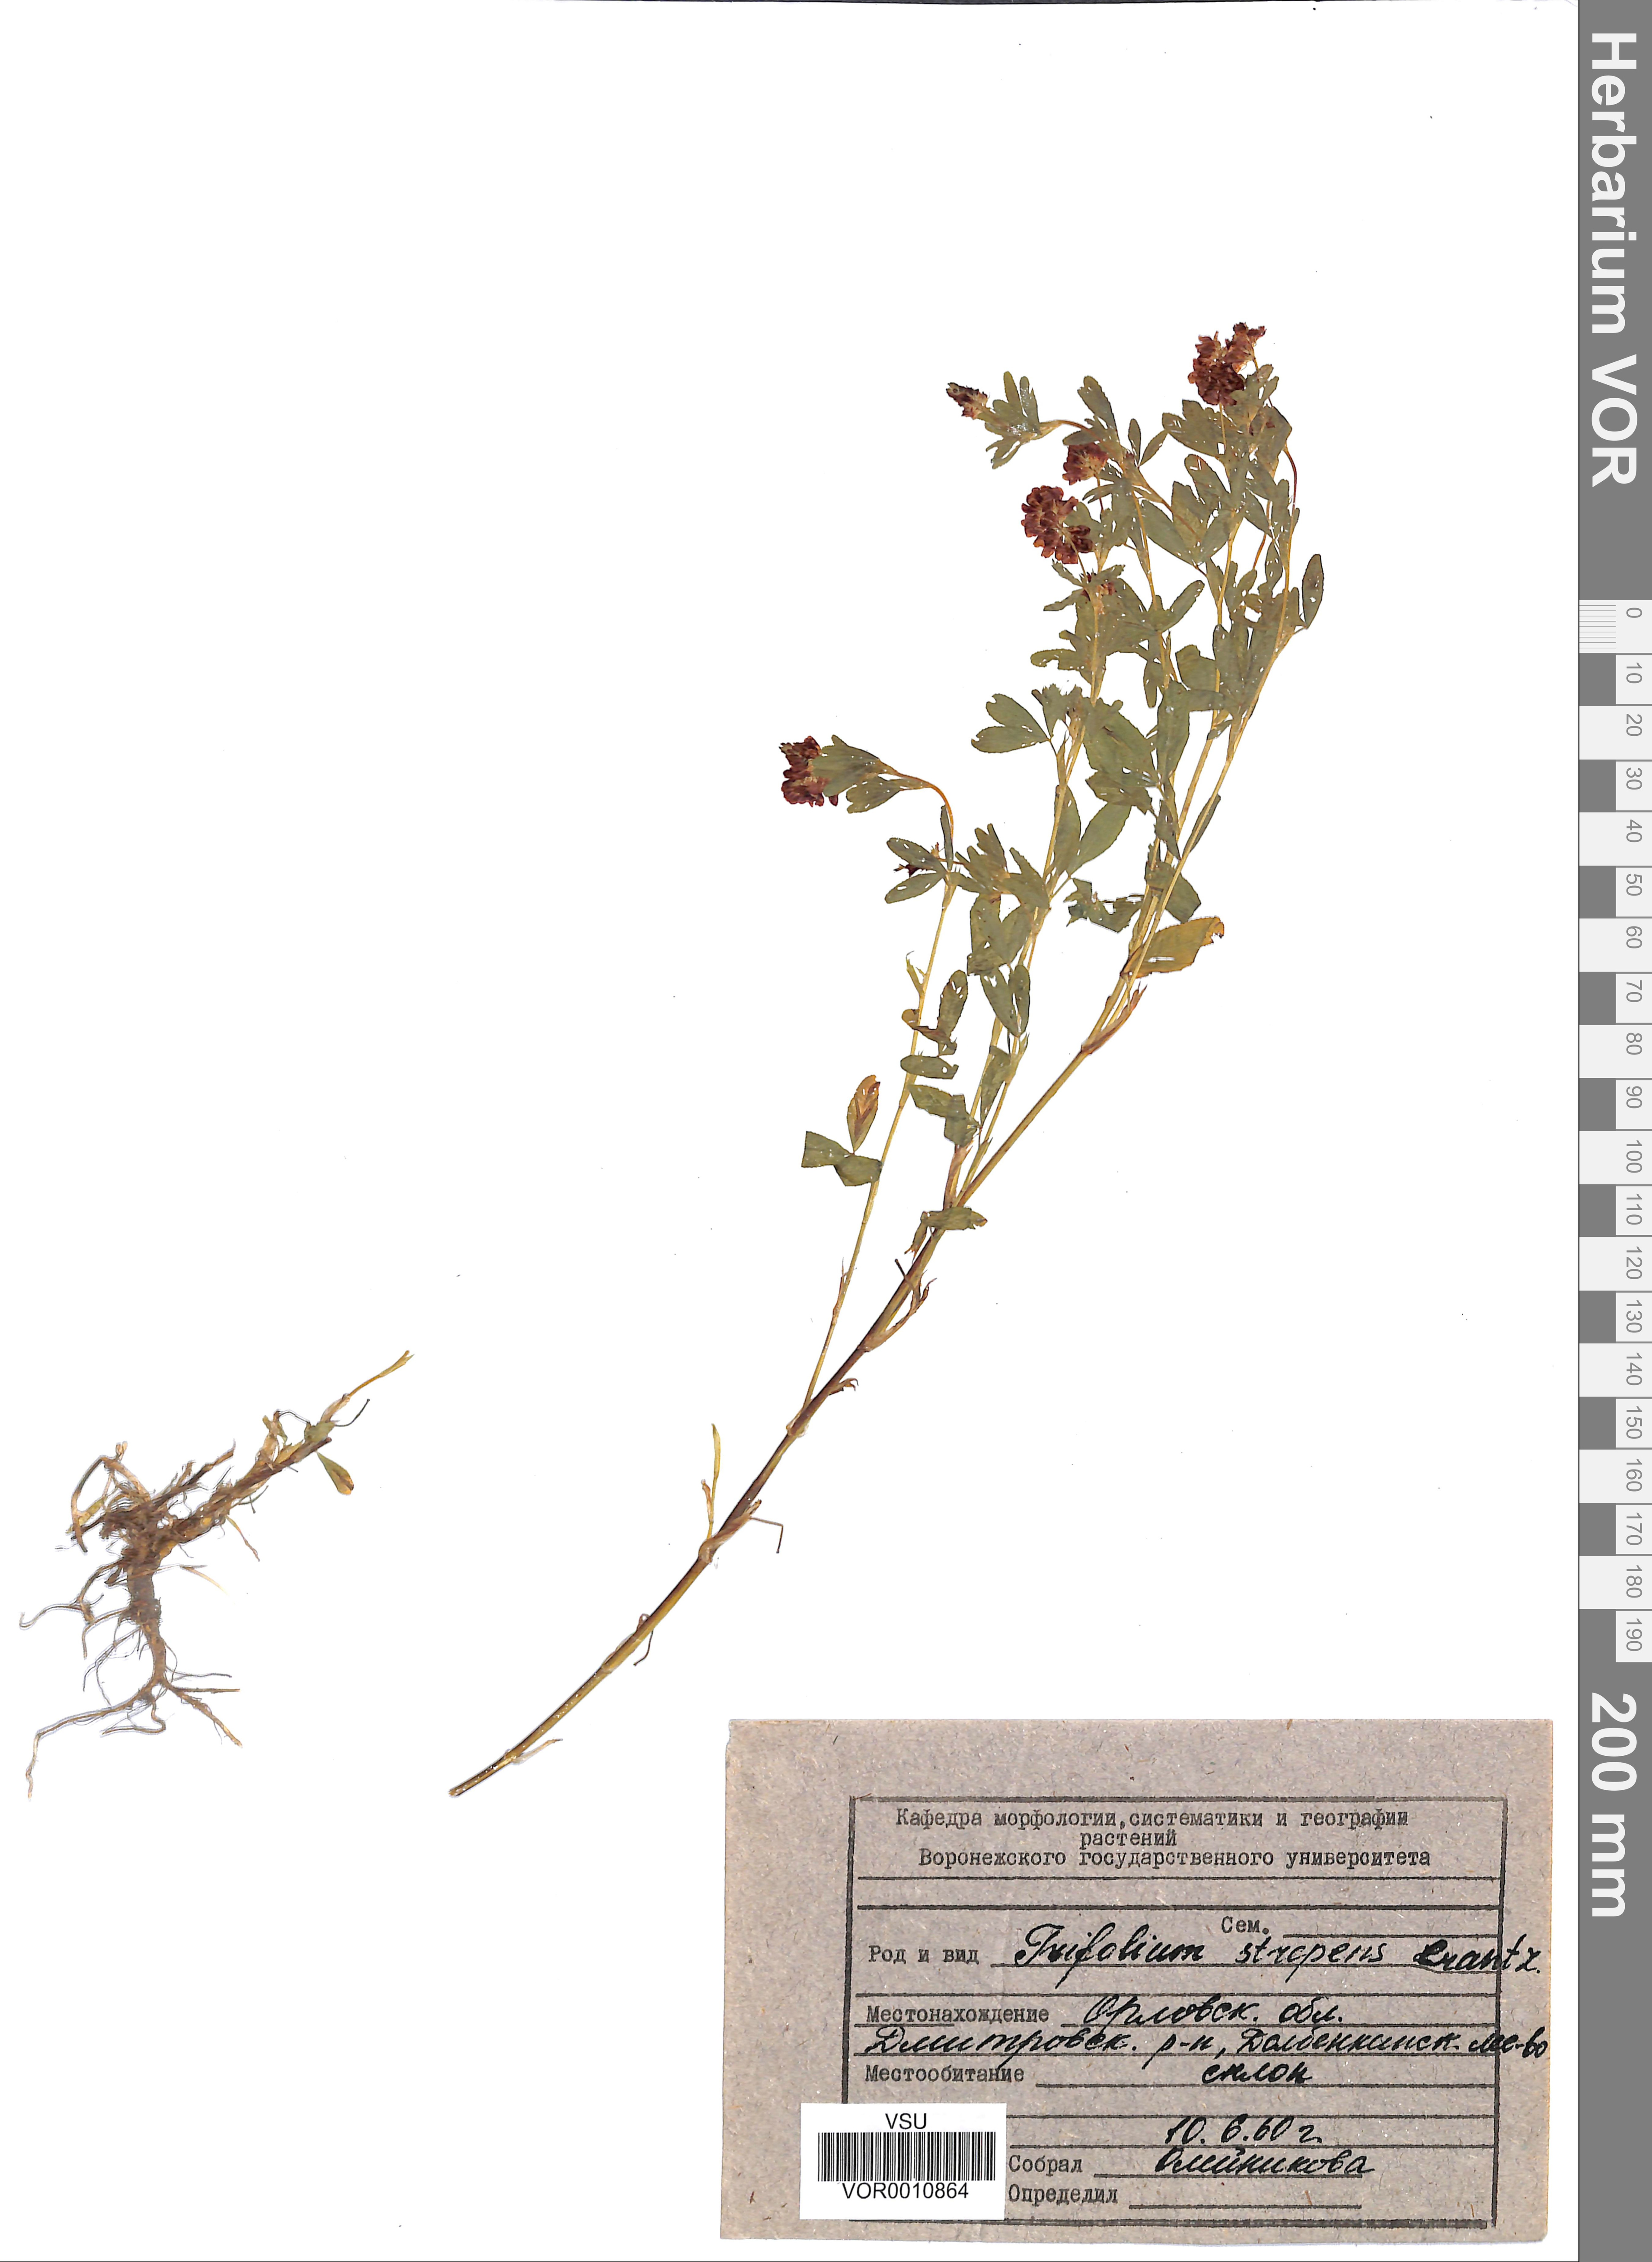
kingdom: Plantae
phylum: Tracheophyta
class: Magnoliopsida
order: Fabales
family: Fabaceae
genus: Trifolium
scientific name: Trifolium aureum
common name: Golden clover
